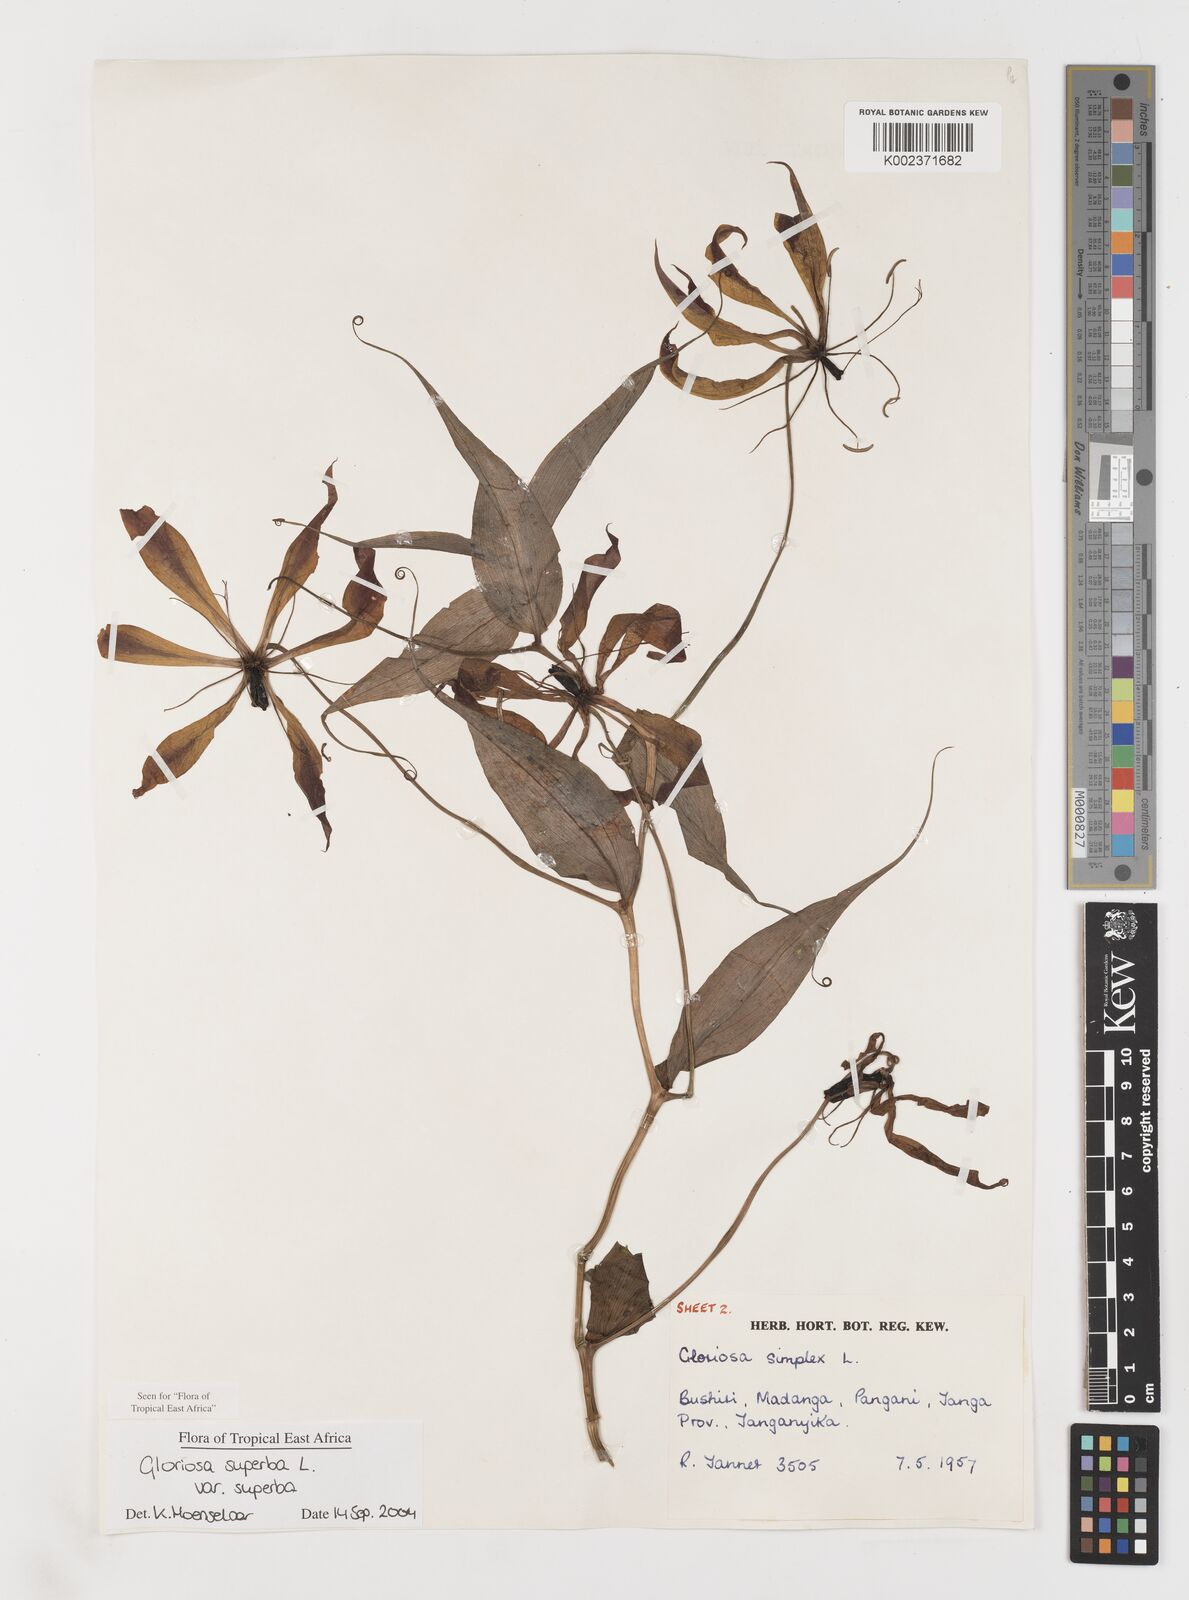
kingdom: Plantae
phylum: Tracheophyta
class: Liliopsida
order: Liliales
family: Colchicaceae
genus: Gloriosa
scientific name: Gloriosa simplex
